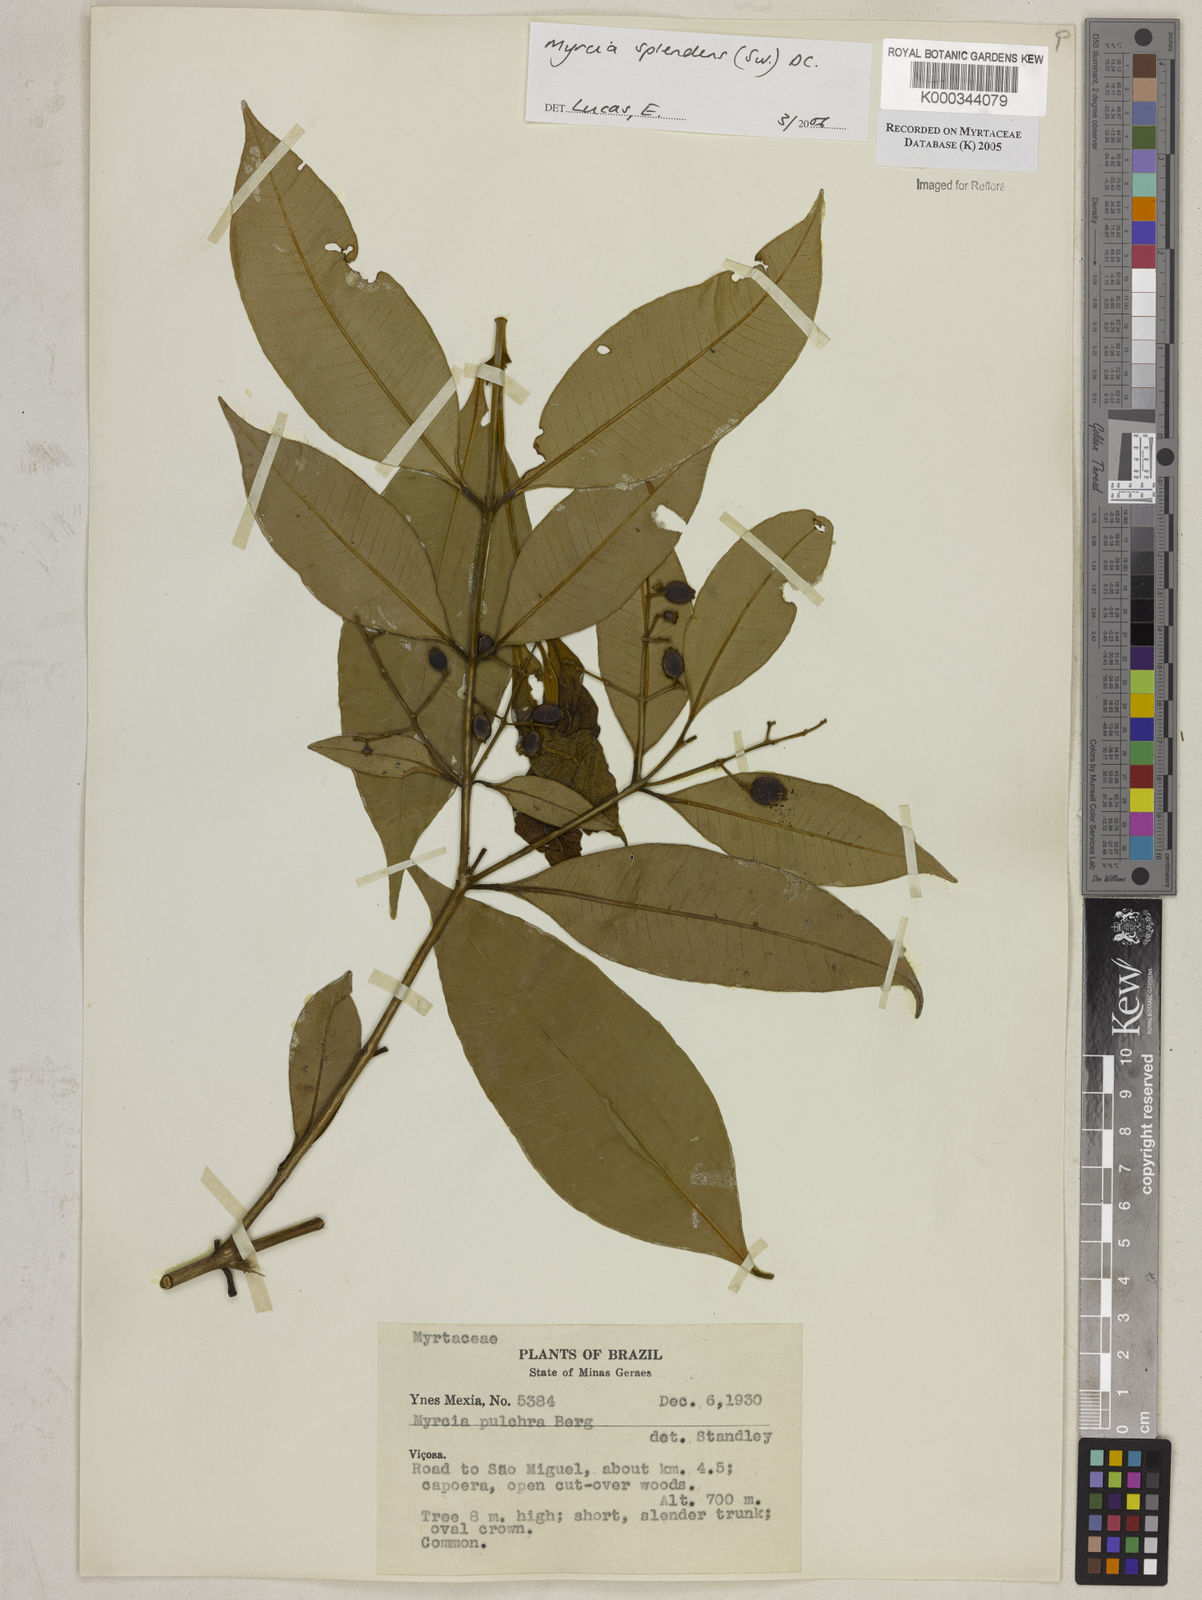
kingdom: Plantae
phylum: Tracheophyta
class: Magnoliopsida
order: Myrtales
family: Myrtaceae
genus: Myrcia
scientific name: Myrcia splendens
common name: Surinam cherry
